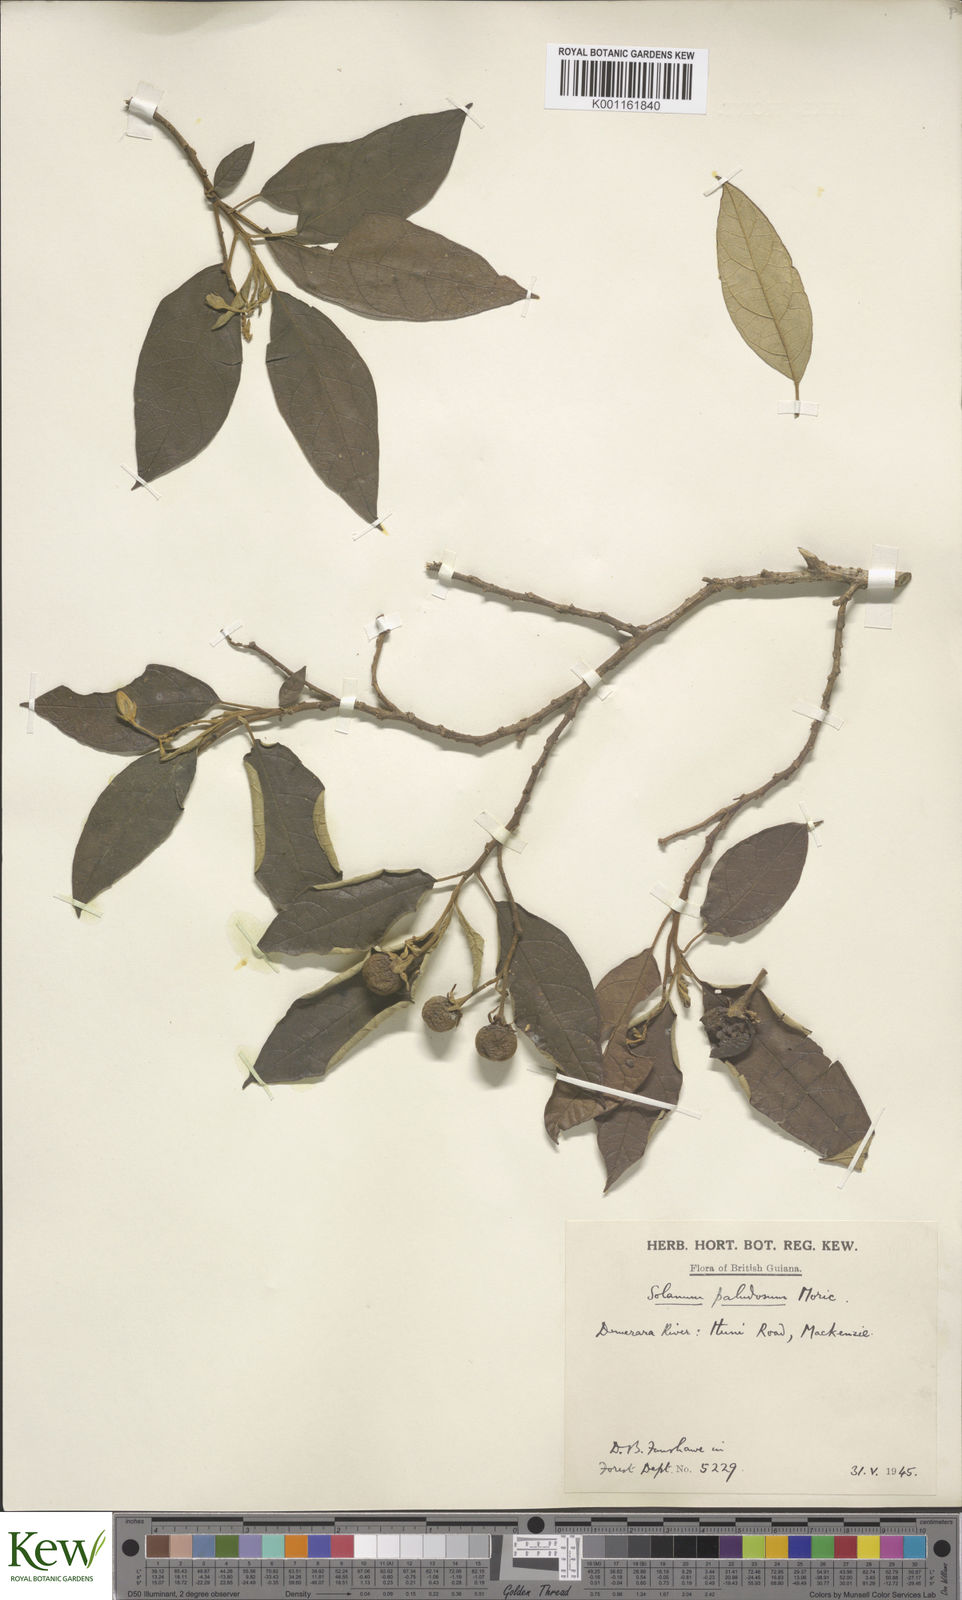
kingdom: Plantae
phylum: Tracheophyta
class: Magnoliopsida
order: Solanales
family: Solanaceae
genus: Solanum
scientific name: Solanum paludosum
